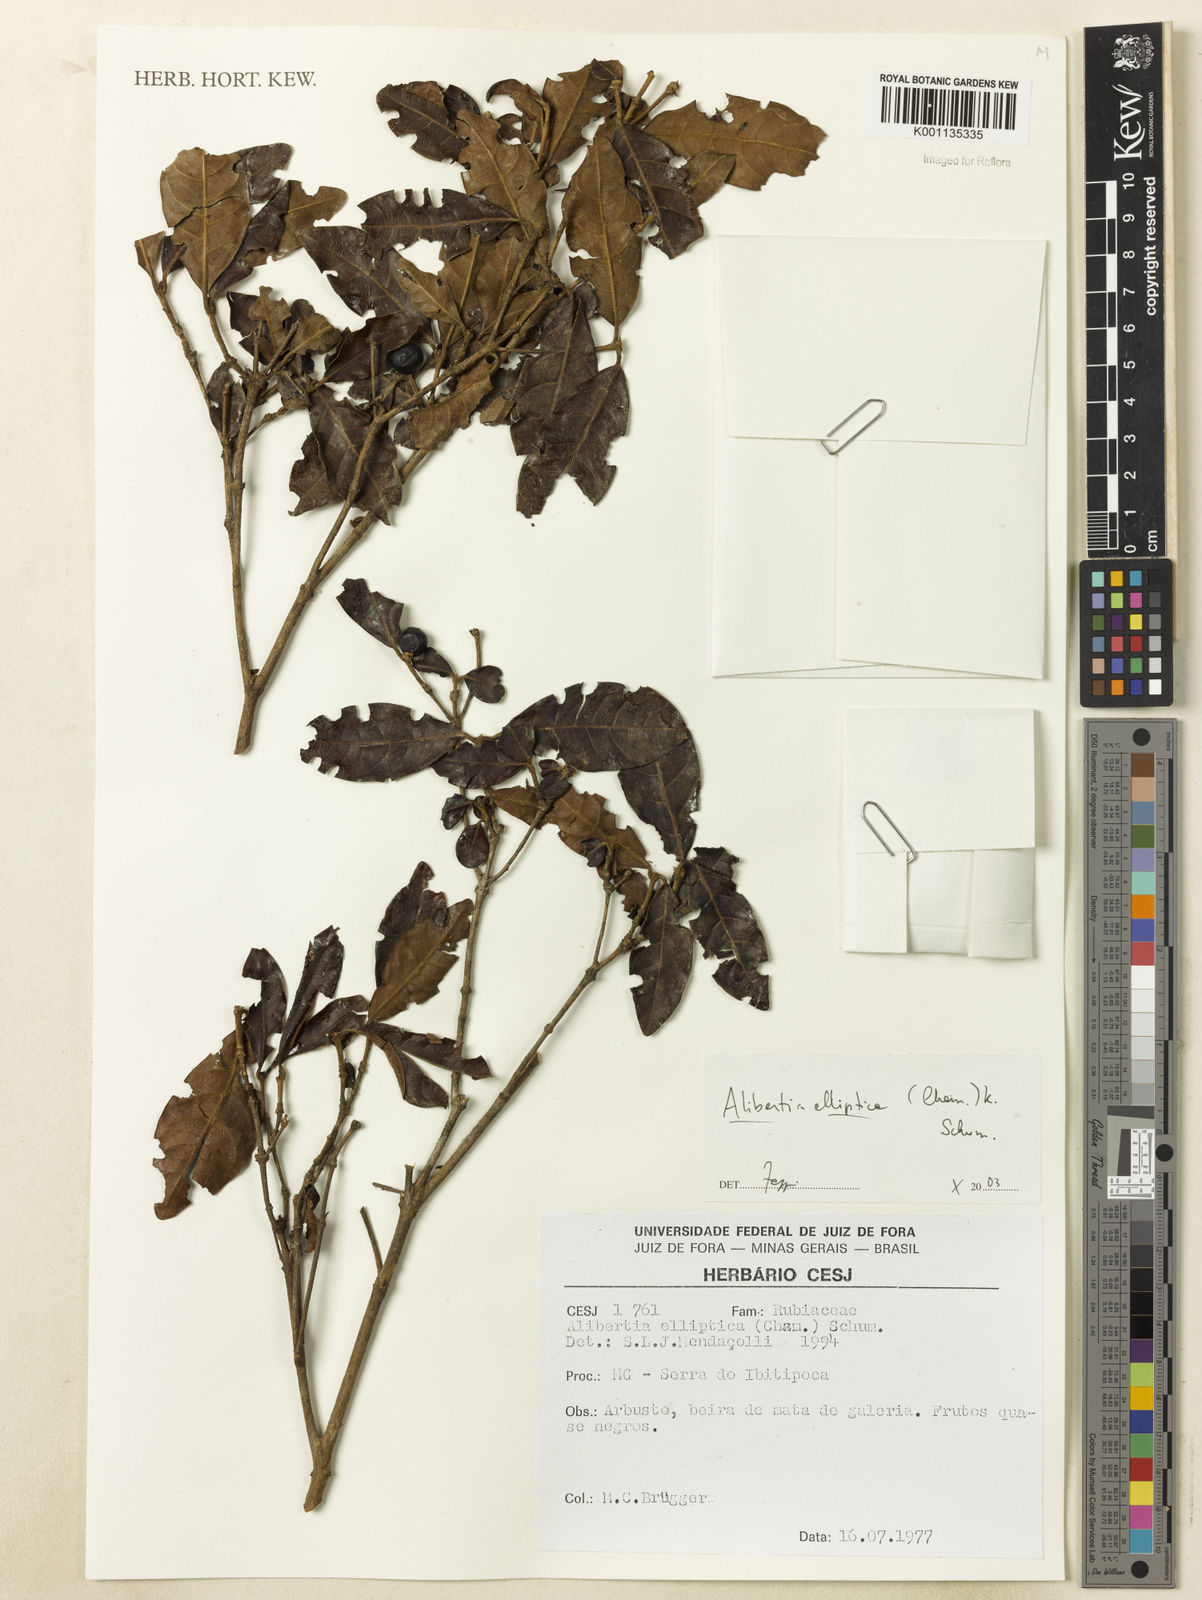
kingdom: Plantae
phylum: Tracheophyta
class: Magnoliopsida
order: Gentianales
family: Rubiaceae
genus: Cordiera
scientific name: Cordiera elliptica
